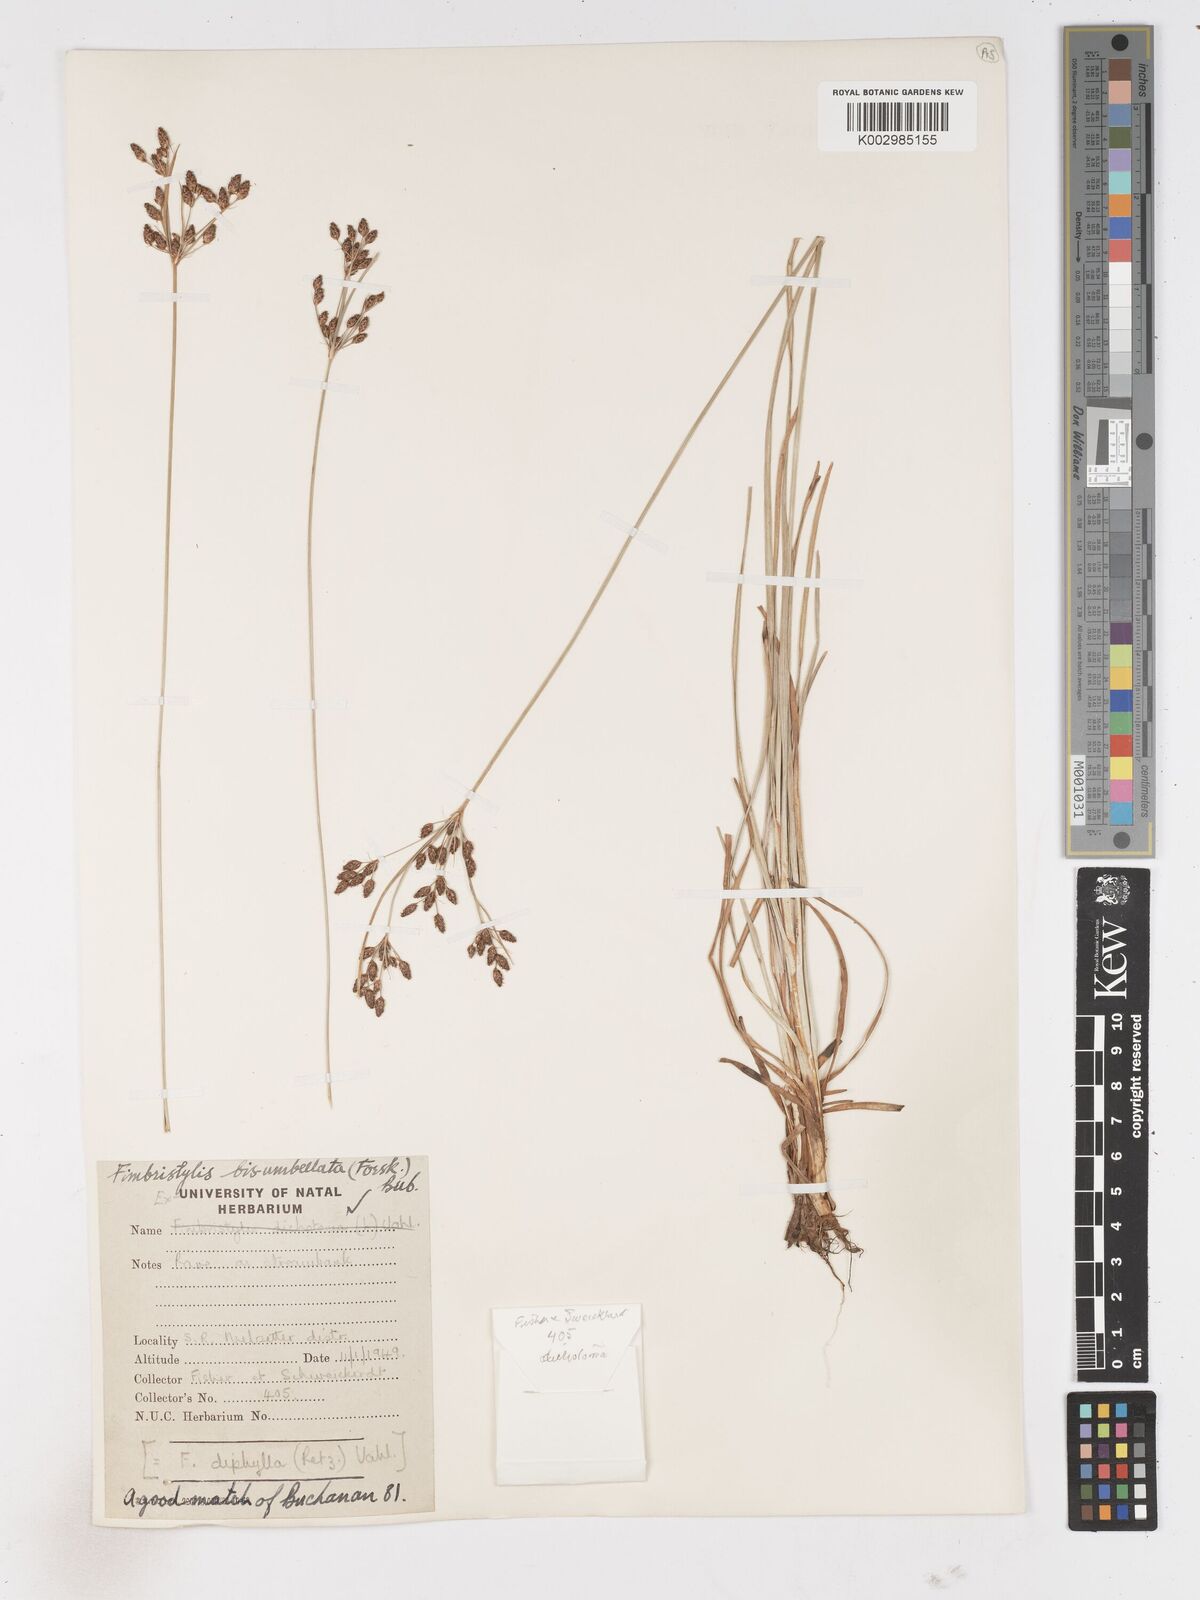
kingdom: Plantae
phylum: Tracheophyta
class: Liliopsida
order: Poales
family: Cyperaceae
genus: Fimbristylis
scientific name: Fimbristylis dichotoma
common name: Forked fimbry
